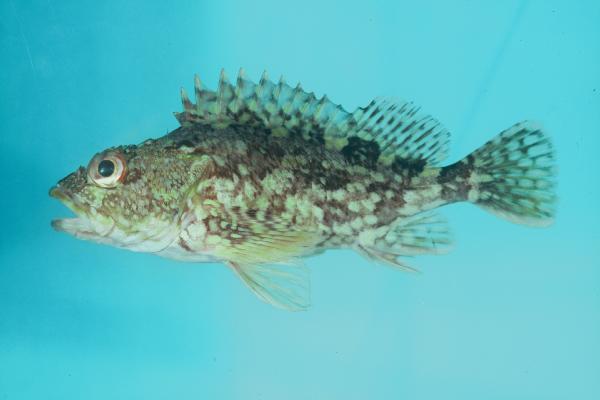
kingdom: Animalia
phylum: Chordata
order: Scorpaeniformes
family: Sebastidae
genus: Sebastiscus
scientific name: Sebastiscus marmoratus
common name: False kelpfish
